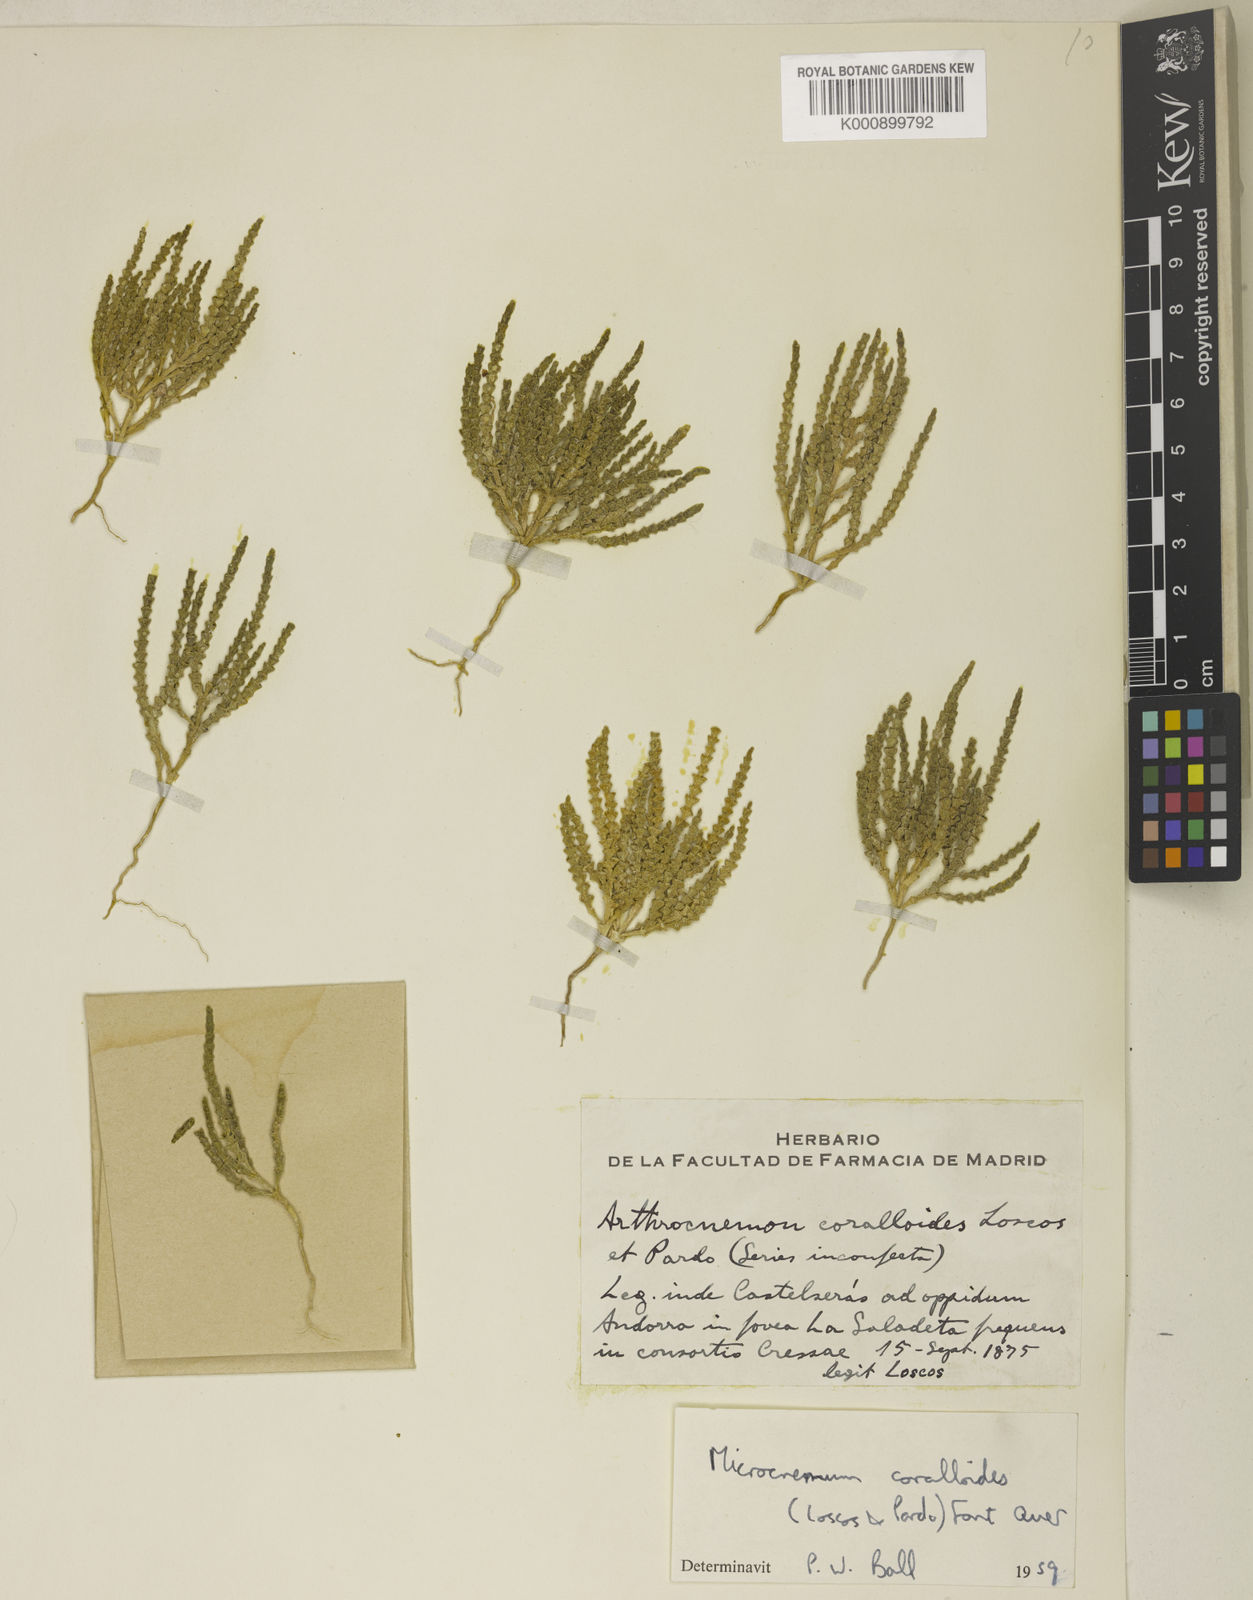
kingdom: Plantae
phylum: Tracheophyta
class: Magnoliopsida
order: Caryophyllales
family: Amaranthaceae
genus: Microcnemum
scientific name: Microcnemum coralloides
